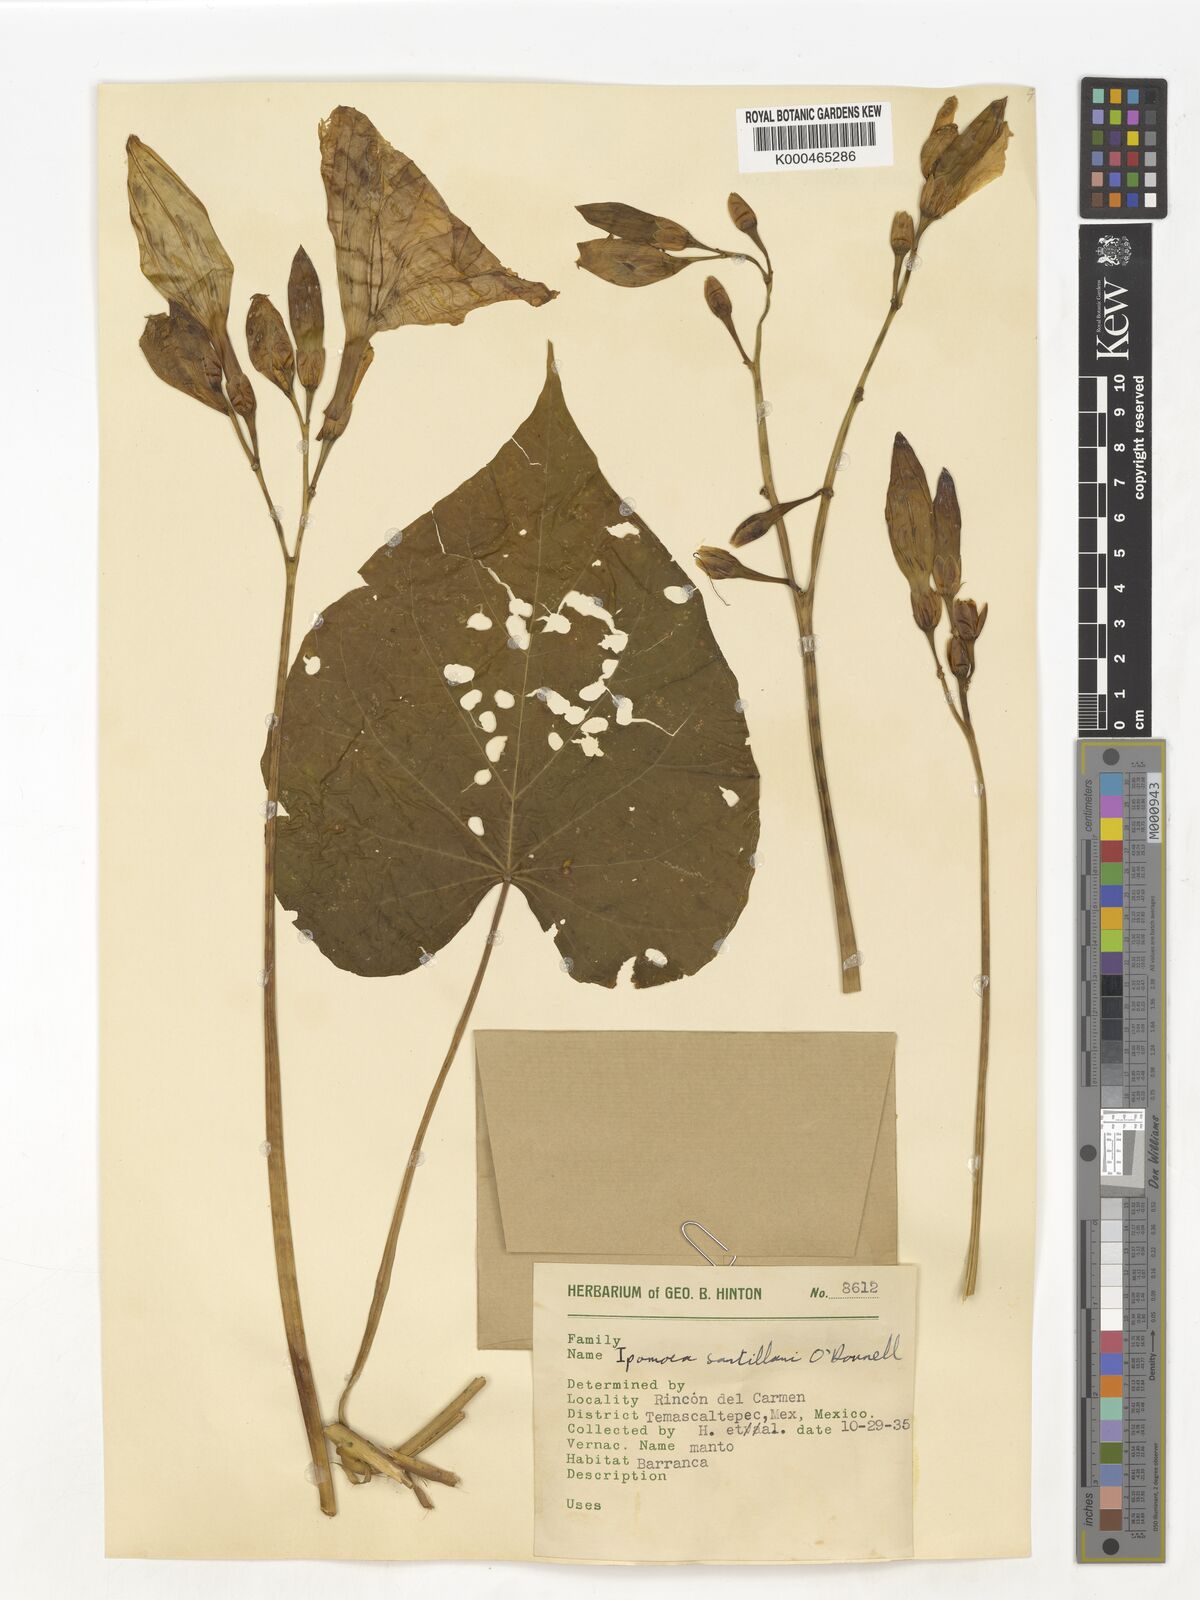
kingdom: Plantae
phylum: Tracheophyta
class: Magnoliopsida
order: Solanales
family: Convolvulaceae
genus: Ipomoea
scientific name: Ipomoea
